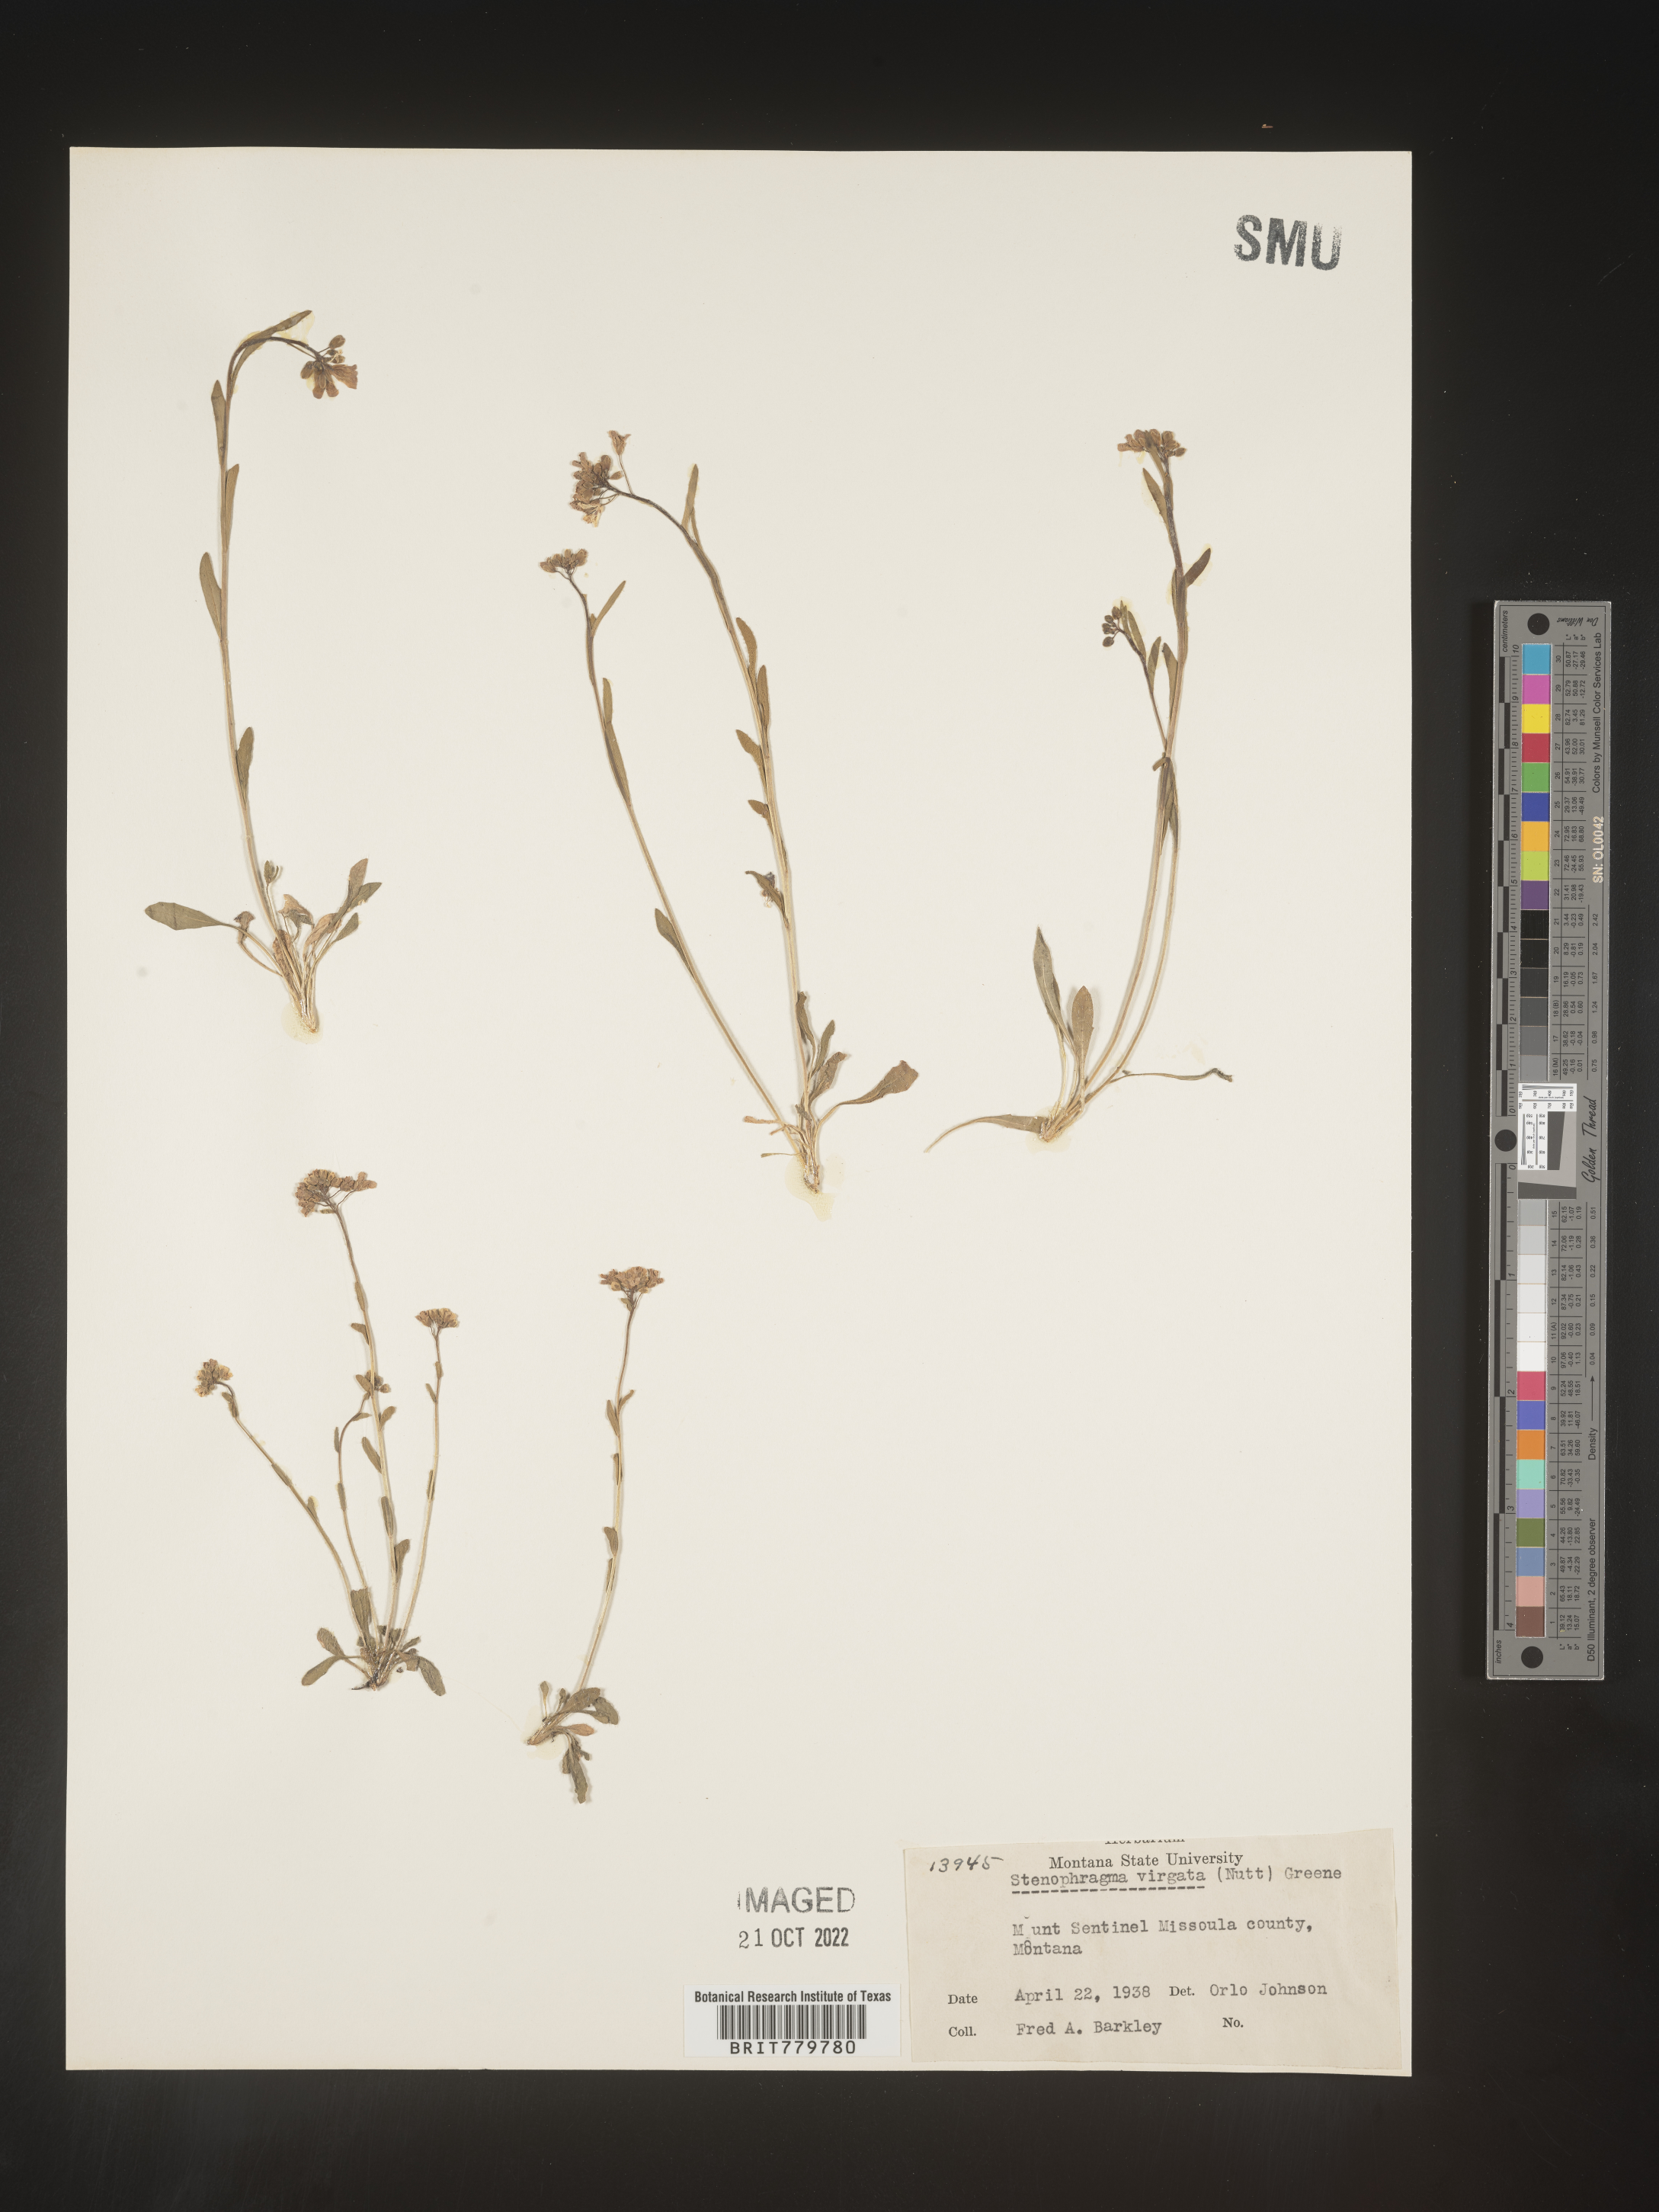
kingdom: Plantae
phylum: Tracheophyta
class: Magnoliopsida
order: Brassicales
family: Brassicaceae
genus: Crucihimalaya
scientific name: Crucihimalaya bursifolia
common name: Soft fissurewort
